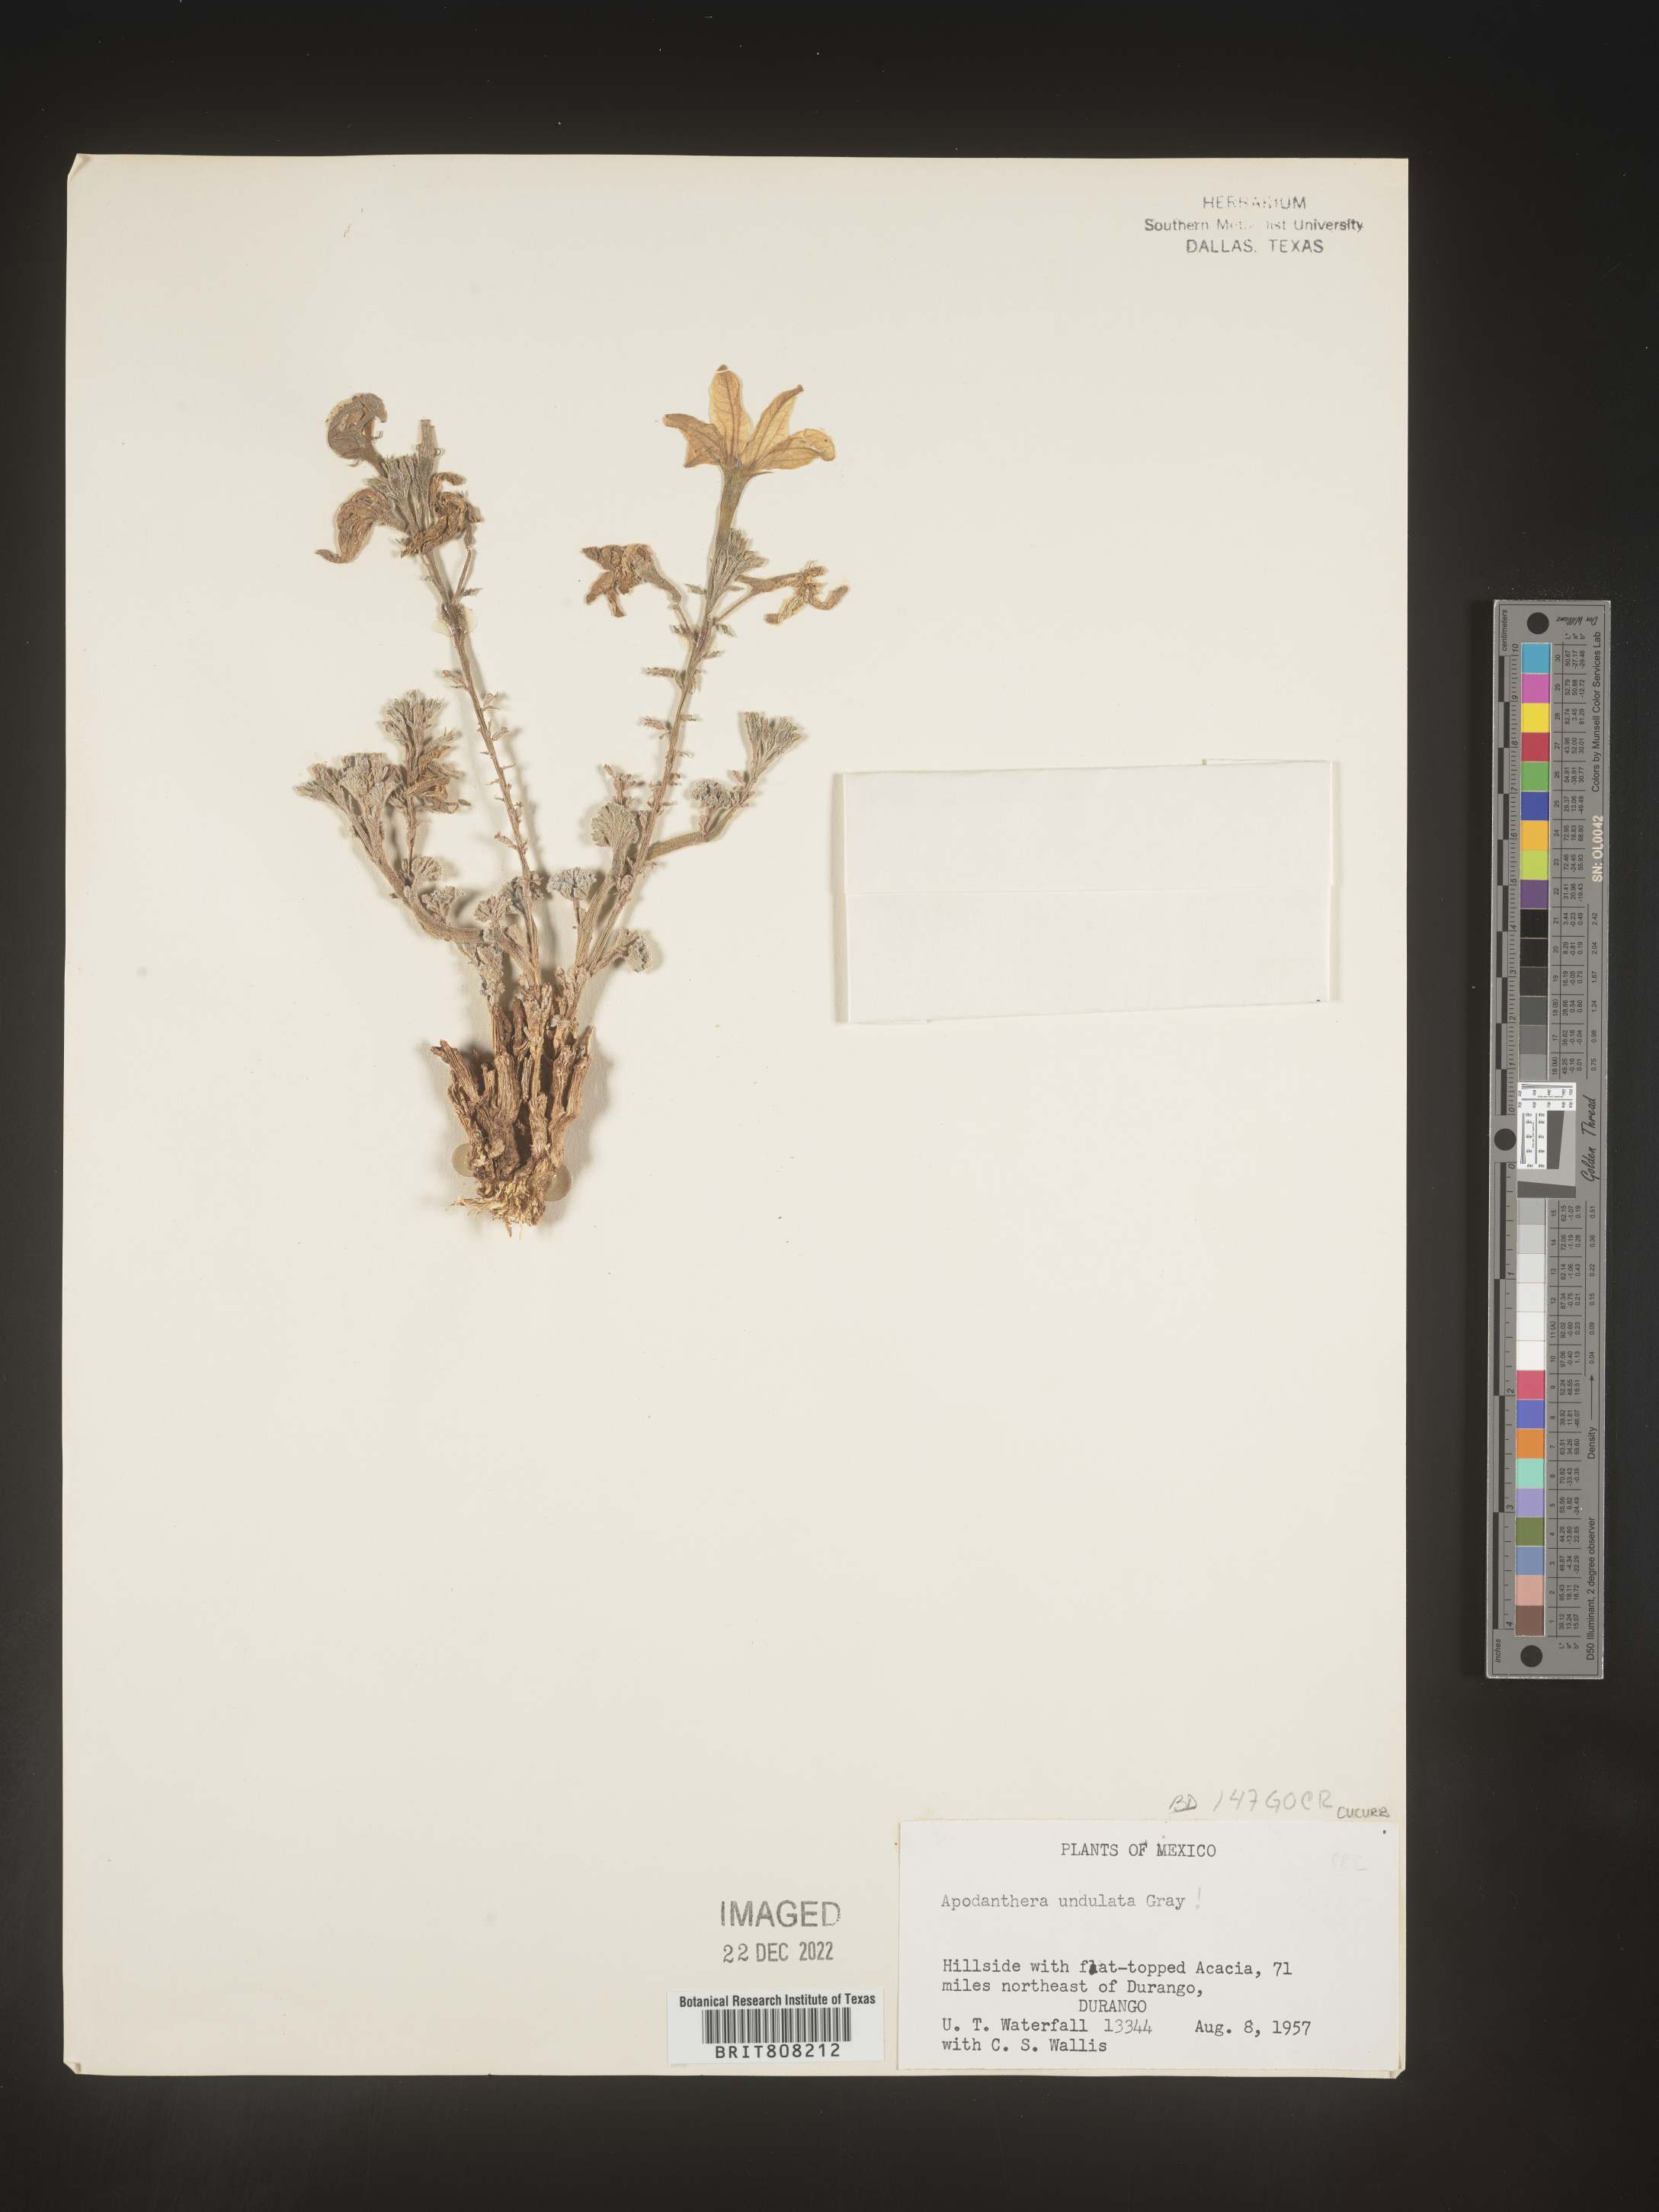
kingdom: Plantae
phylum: Tracheophyta
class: Magnoliopsida
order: Cucurbitales
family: Cucurbitaceae
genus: Apodanthera
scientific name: Apodanthera
